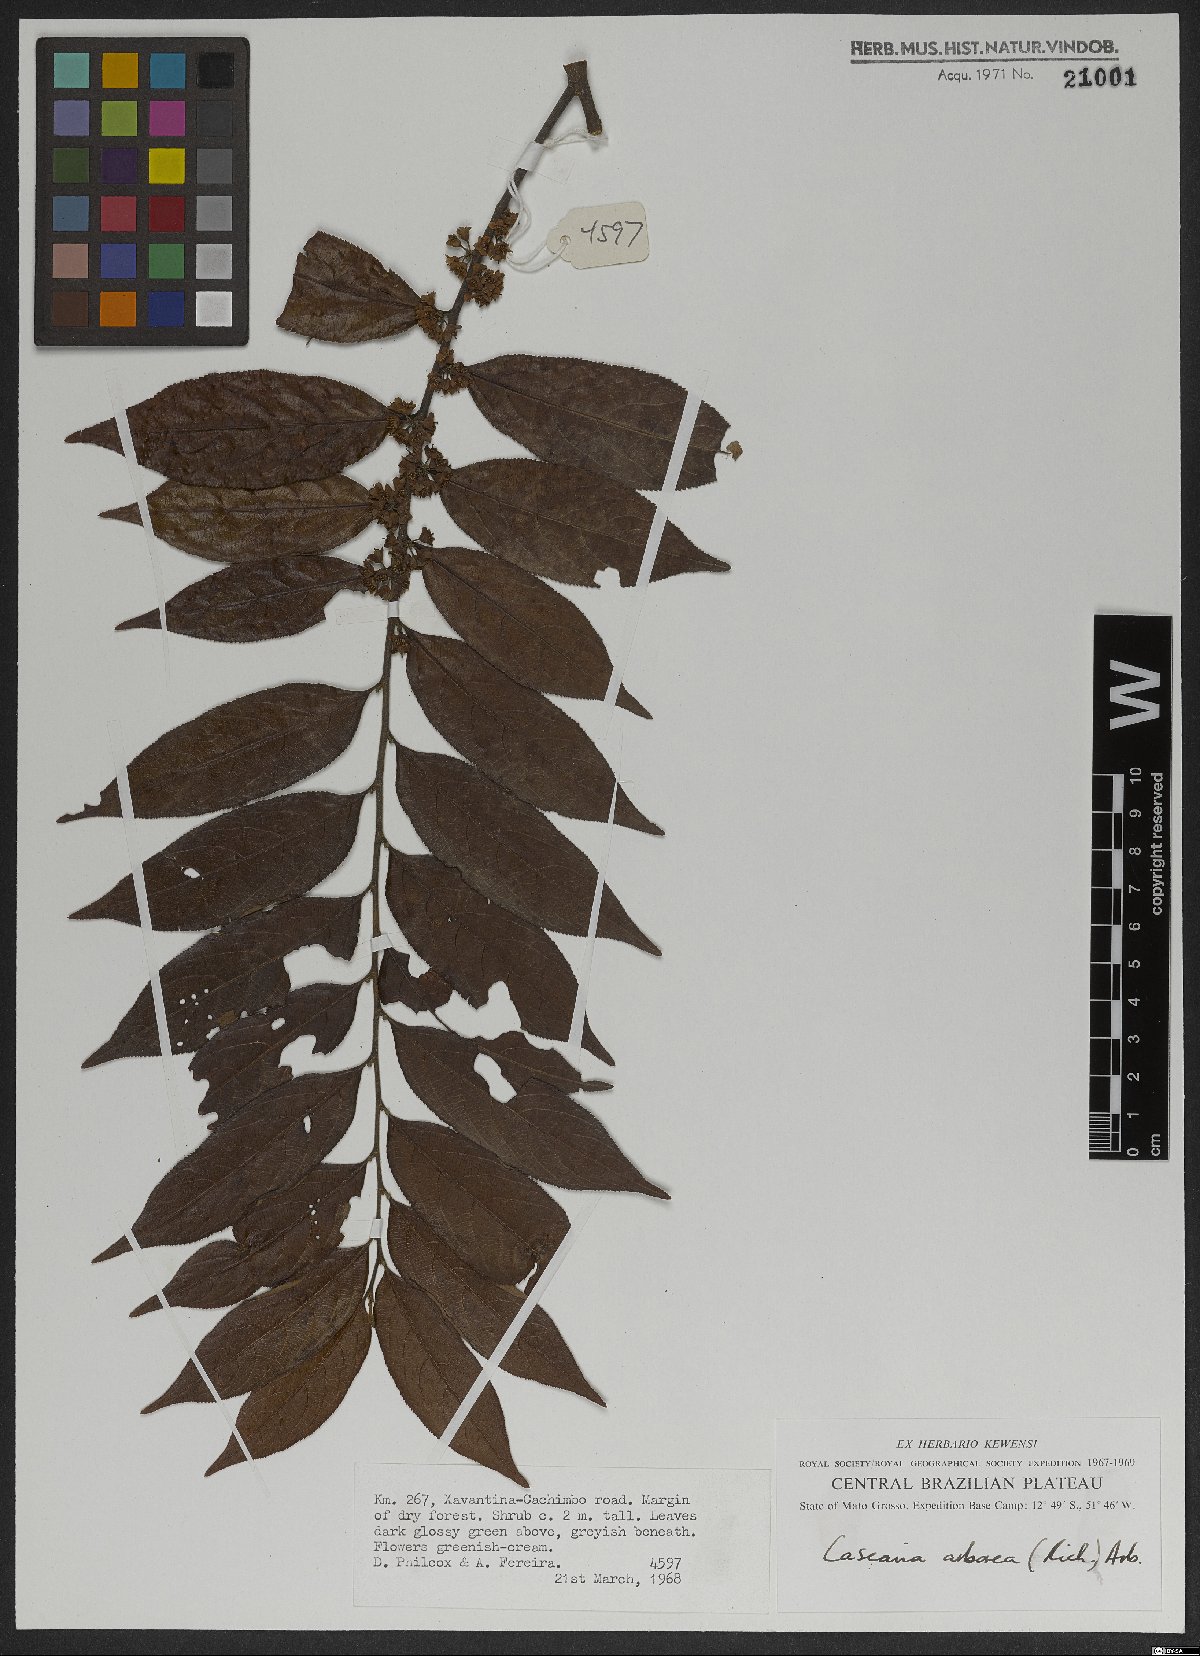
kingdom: Plantae
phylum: Tracheophyta
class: Magnoliopsida
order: Malpighiales
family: Salicaceae
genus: Casearia
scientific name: Casearia arborea
